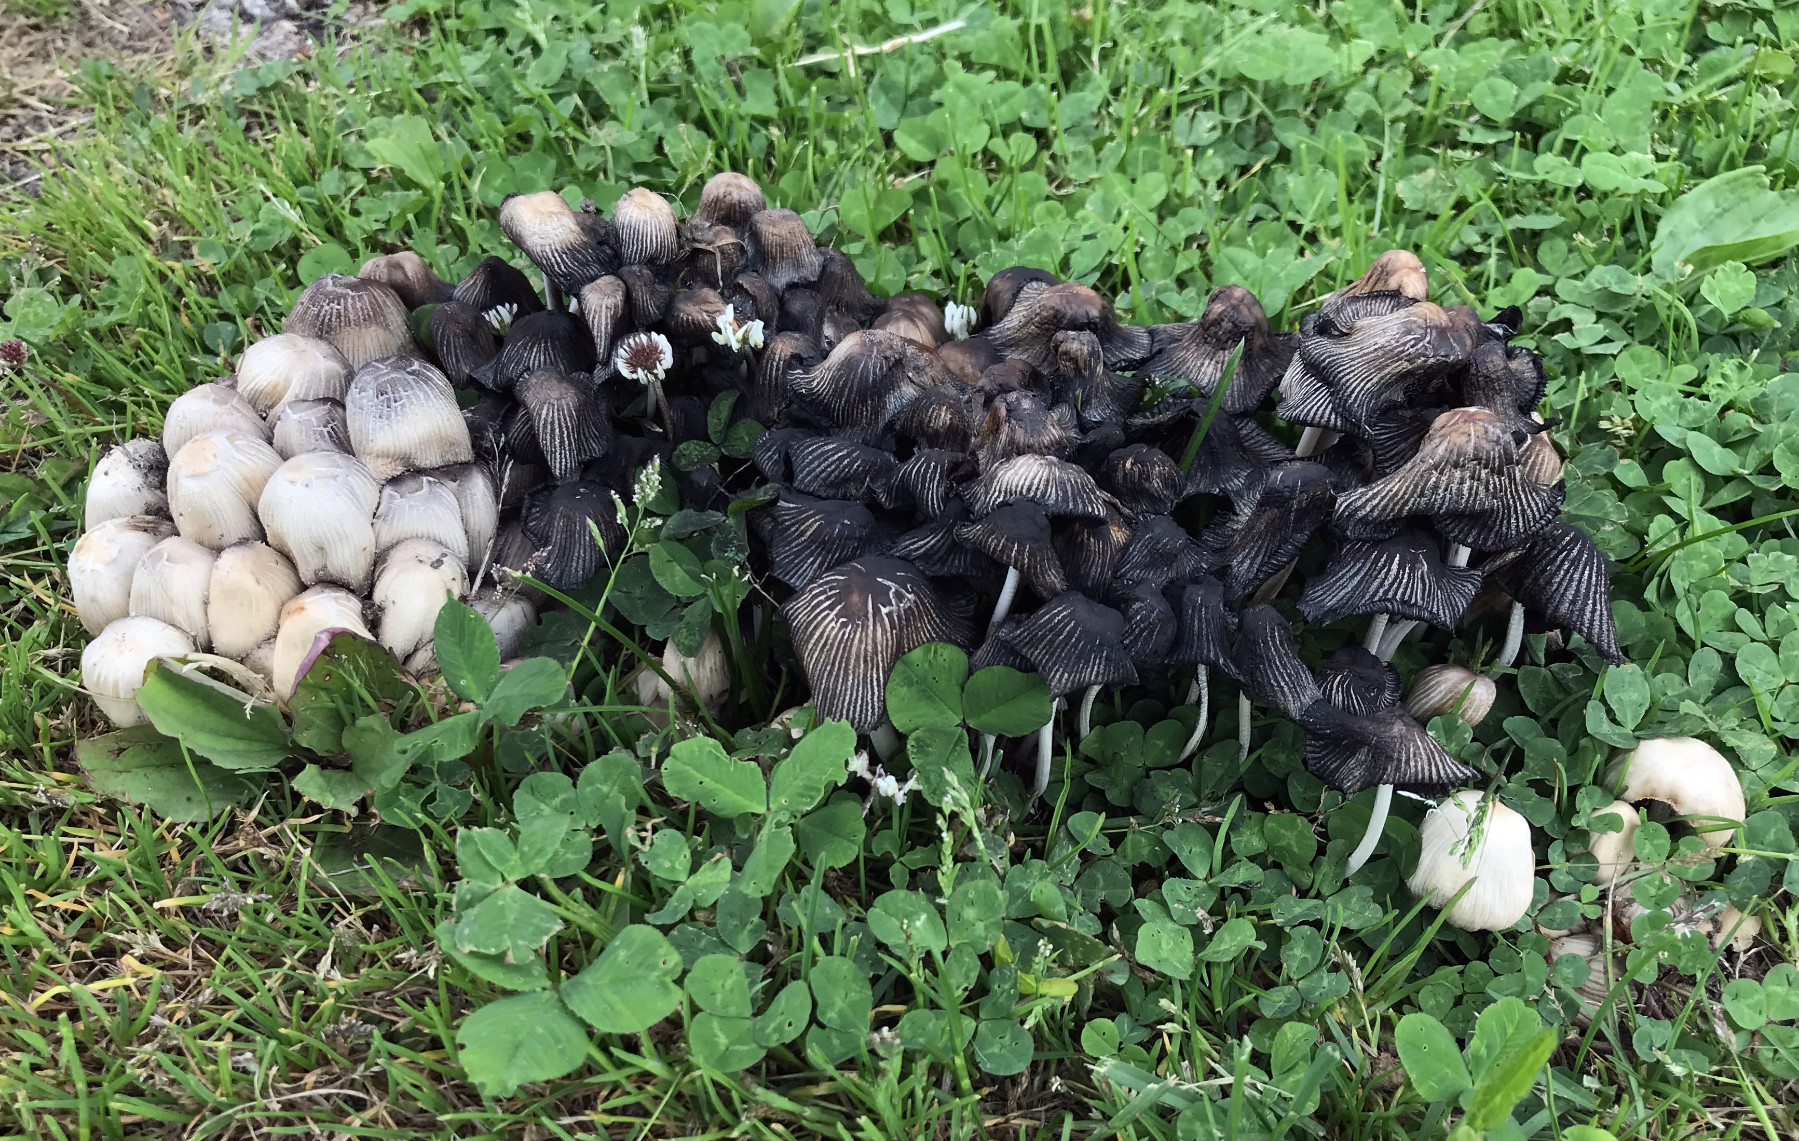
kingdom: Fungi
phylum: Basidiomycota
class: Agaricomycetes
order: Agaricales
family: Psathyrellaceae
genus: Coprinellus
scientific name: Coprinellus micaceus
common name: glimmer-blækhat
